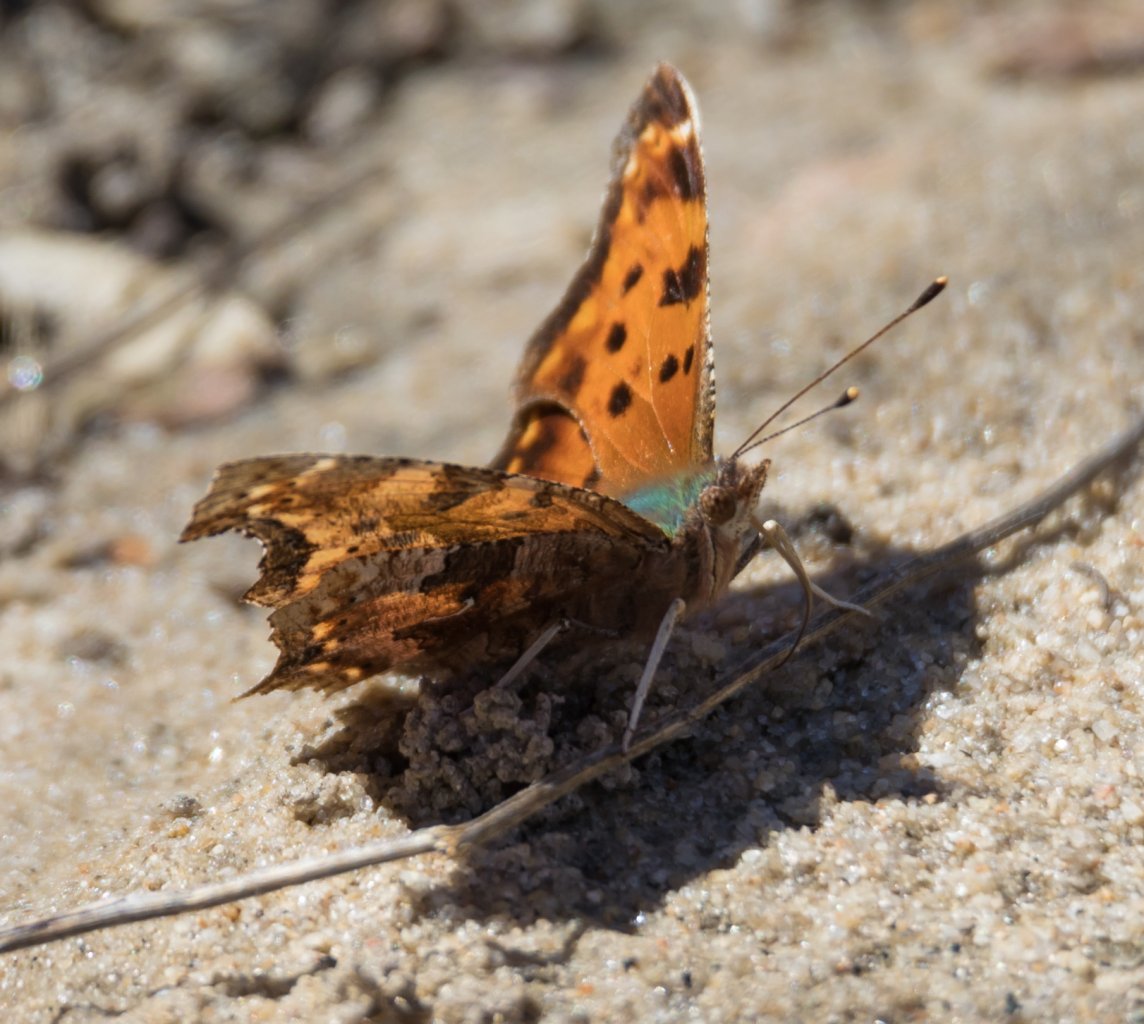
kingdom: Animalia
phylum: Arthropoda
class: Insecta
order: Lepidoptera
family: Nymphalidae
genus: Polygonia
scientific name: Polygonia comma
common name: Eastern Comma
